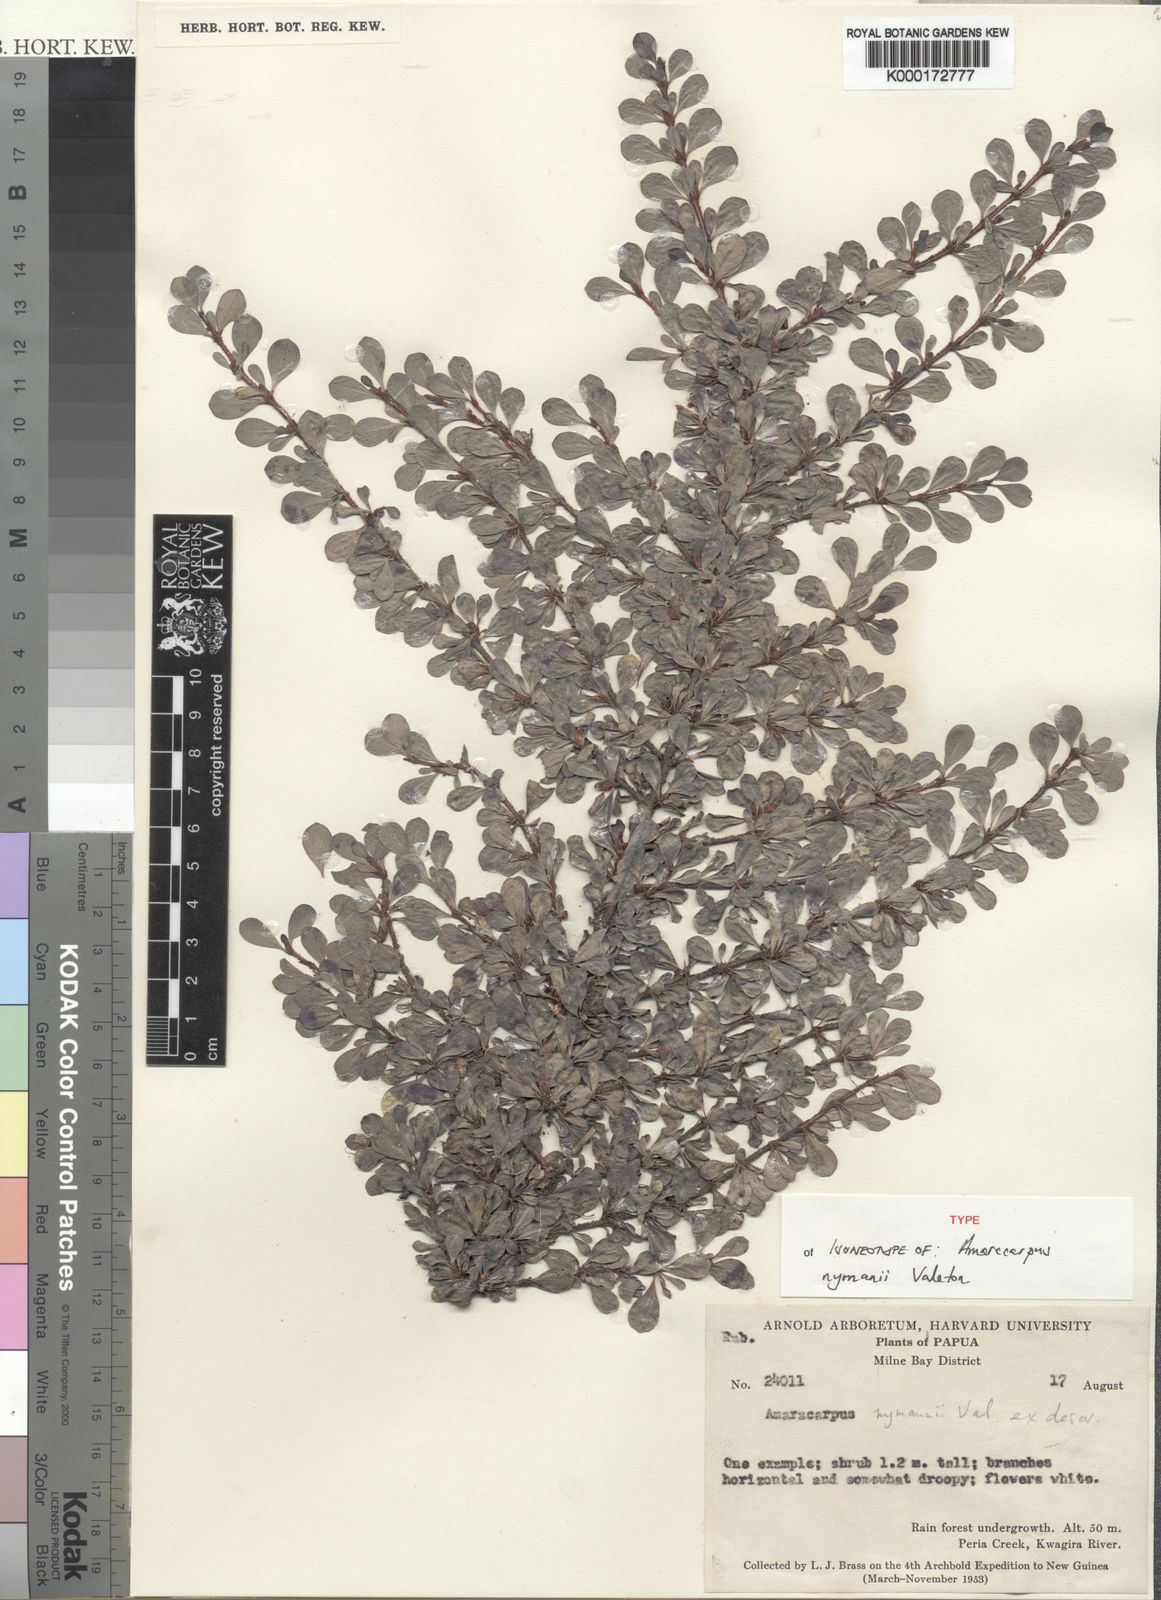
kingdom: Plantae
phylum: Tracheophyta
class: Magnoliopsida
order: Gentianales
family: Rubiaceae
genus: Amaracarpus
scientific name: Amaracarpus nymanii
